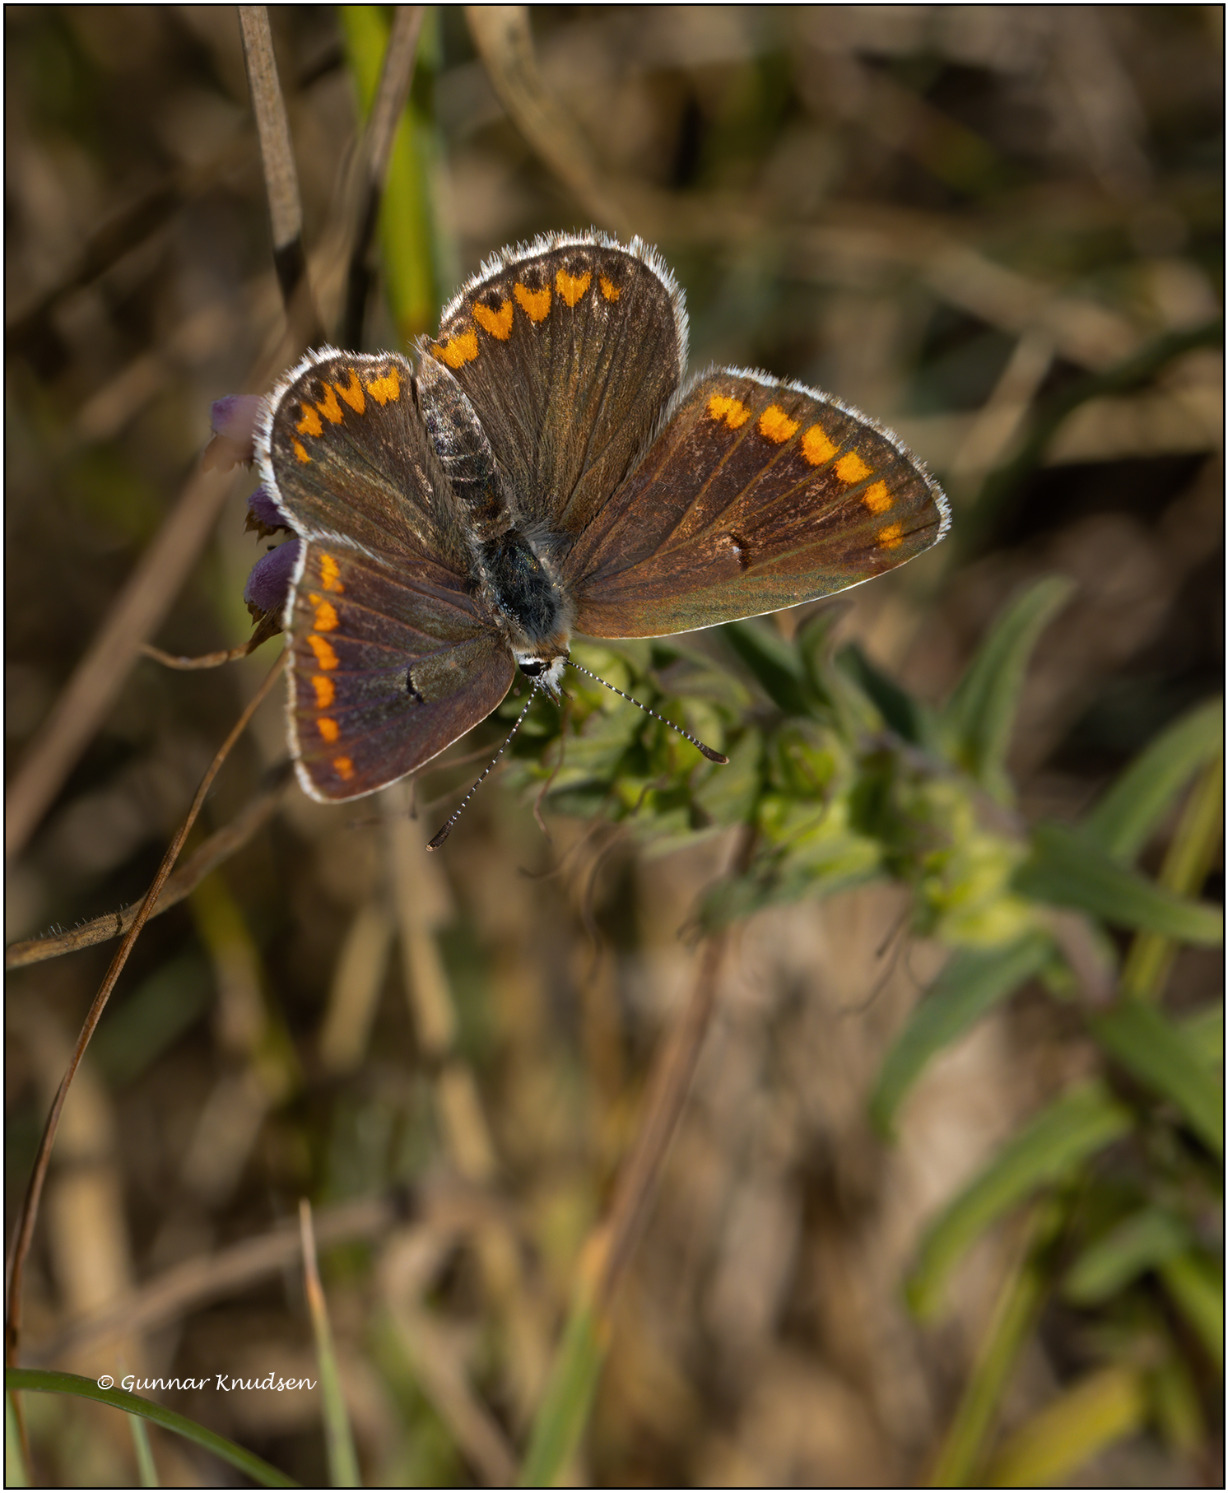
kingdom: Animalia
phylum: Arthropoda
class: Insecta
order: Lepidoptera
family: Lycaenidae
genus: Aricia
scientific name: Aricia agestis
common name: Rødplettet blåfugl
